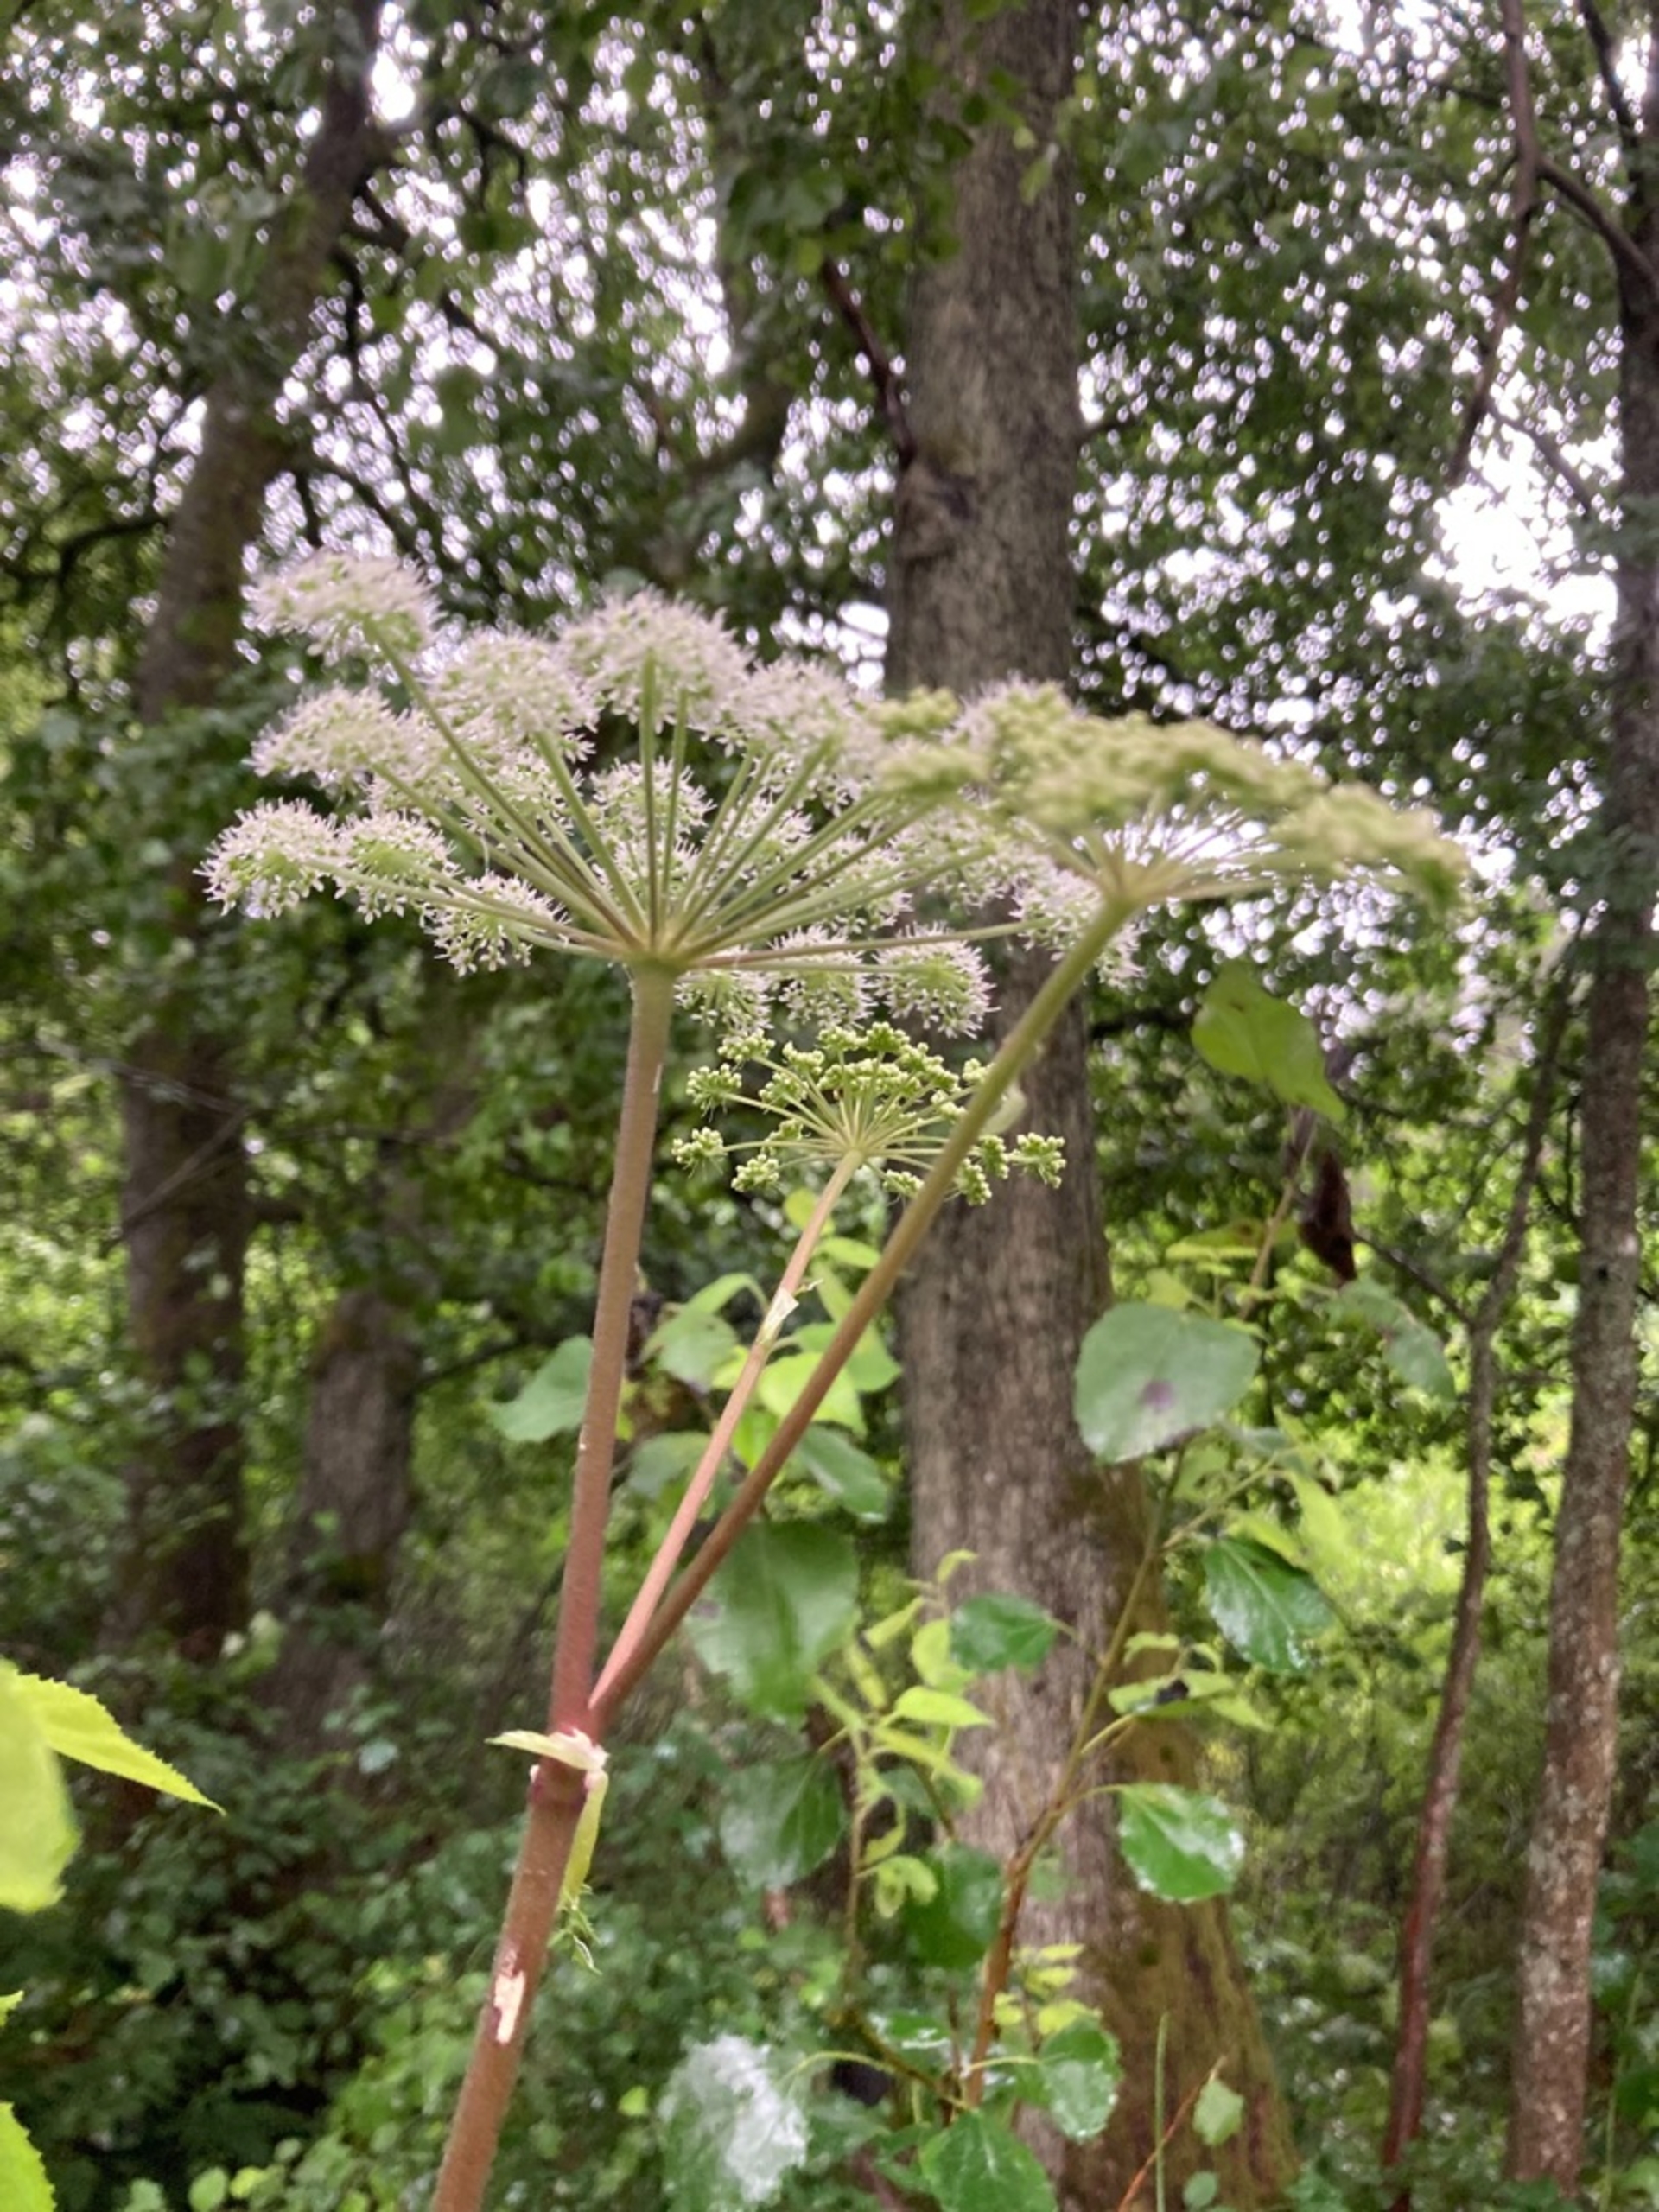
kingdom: Plantae
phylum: Tracheophyta
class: Magnoliopsida
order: Apiales
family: Apiaceae
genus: Angelica
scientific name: Angelica sylvestris
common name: Angelik
